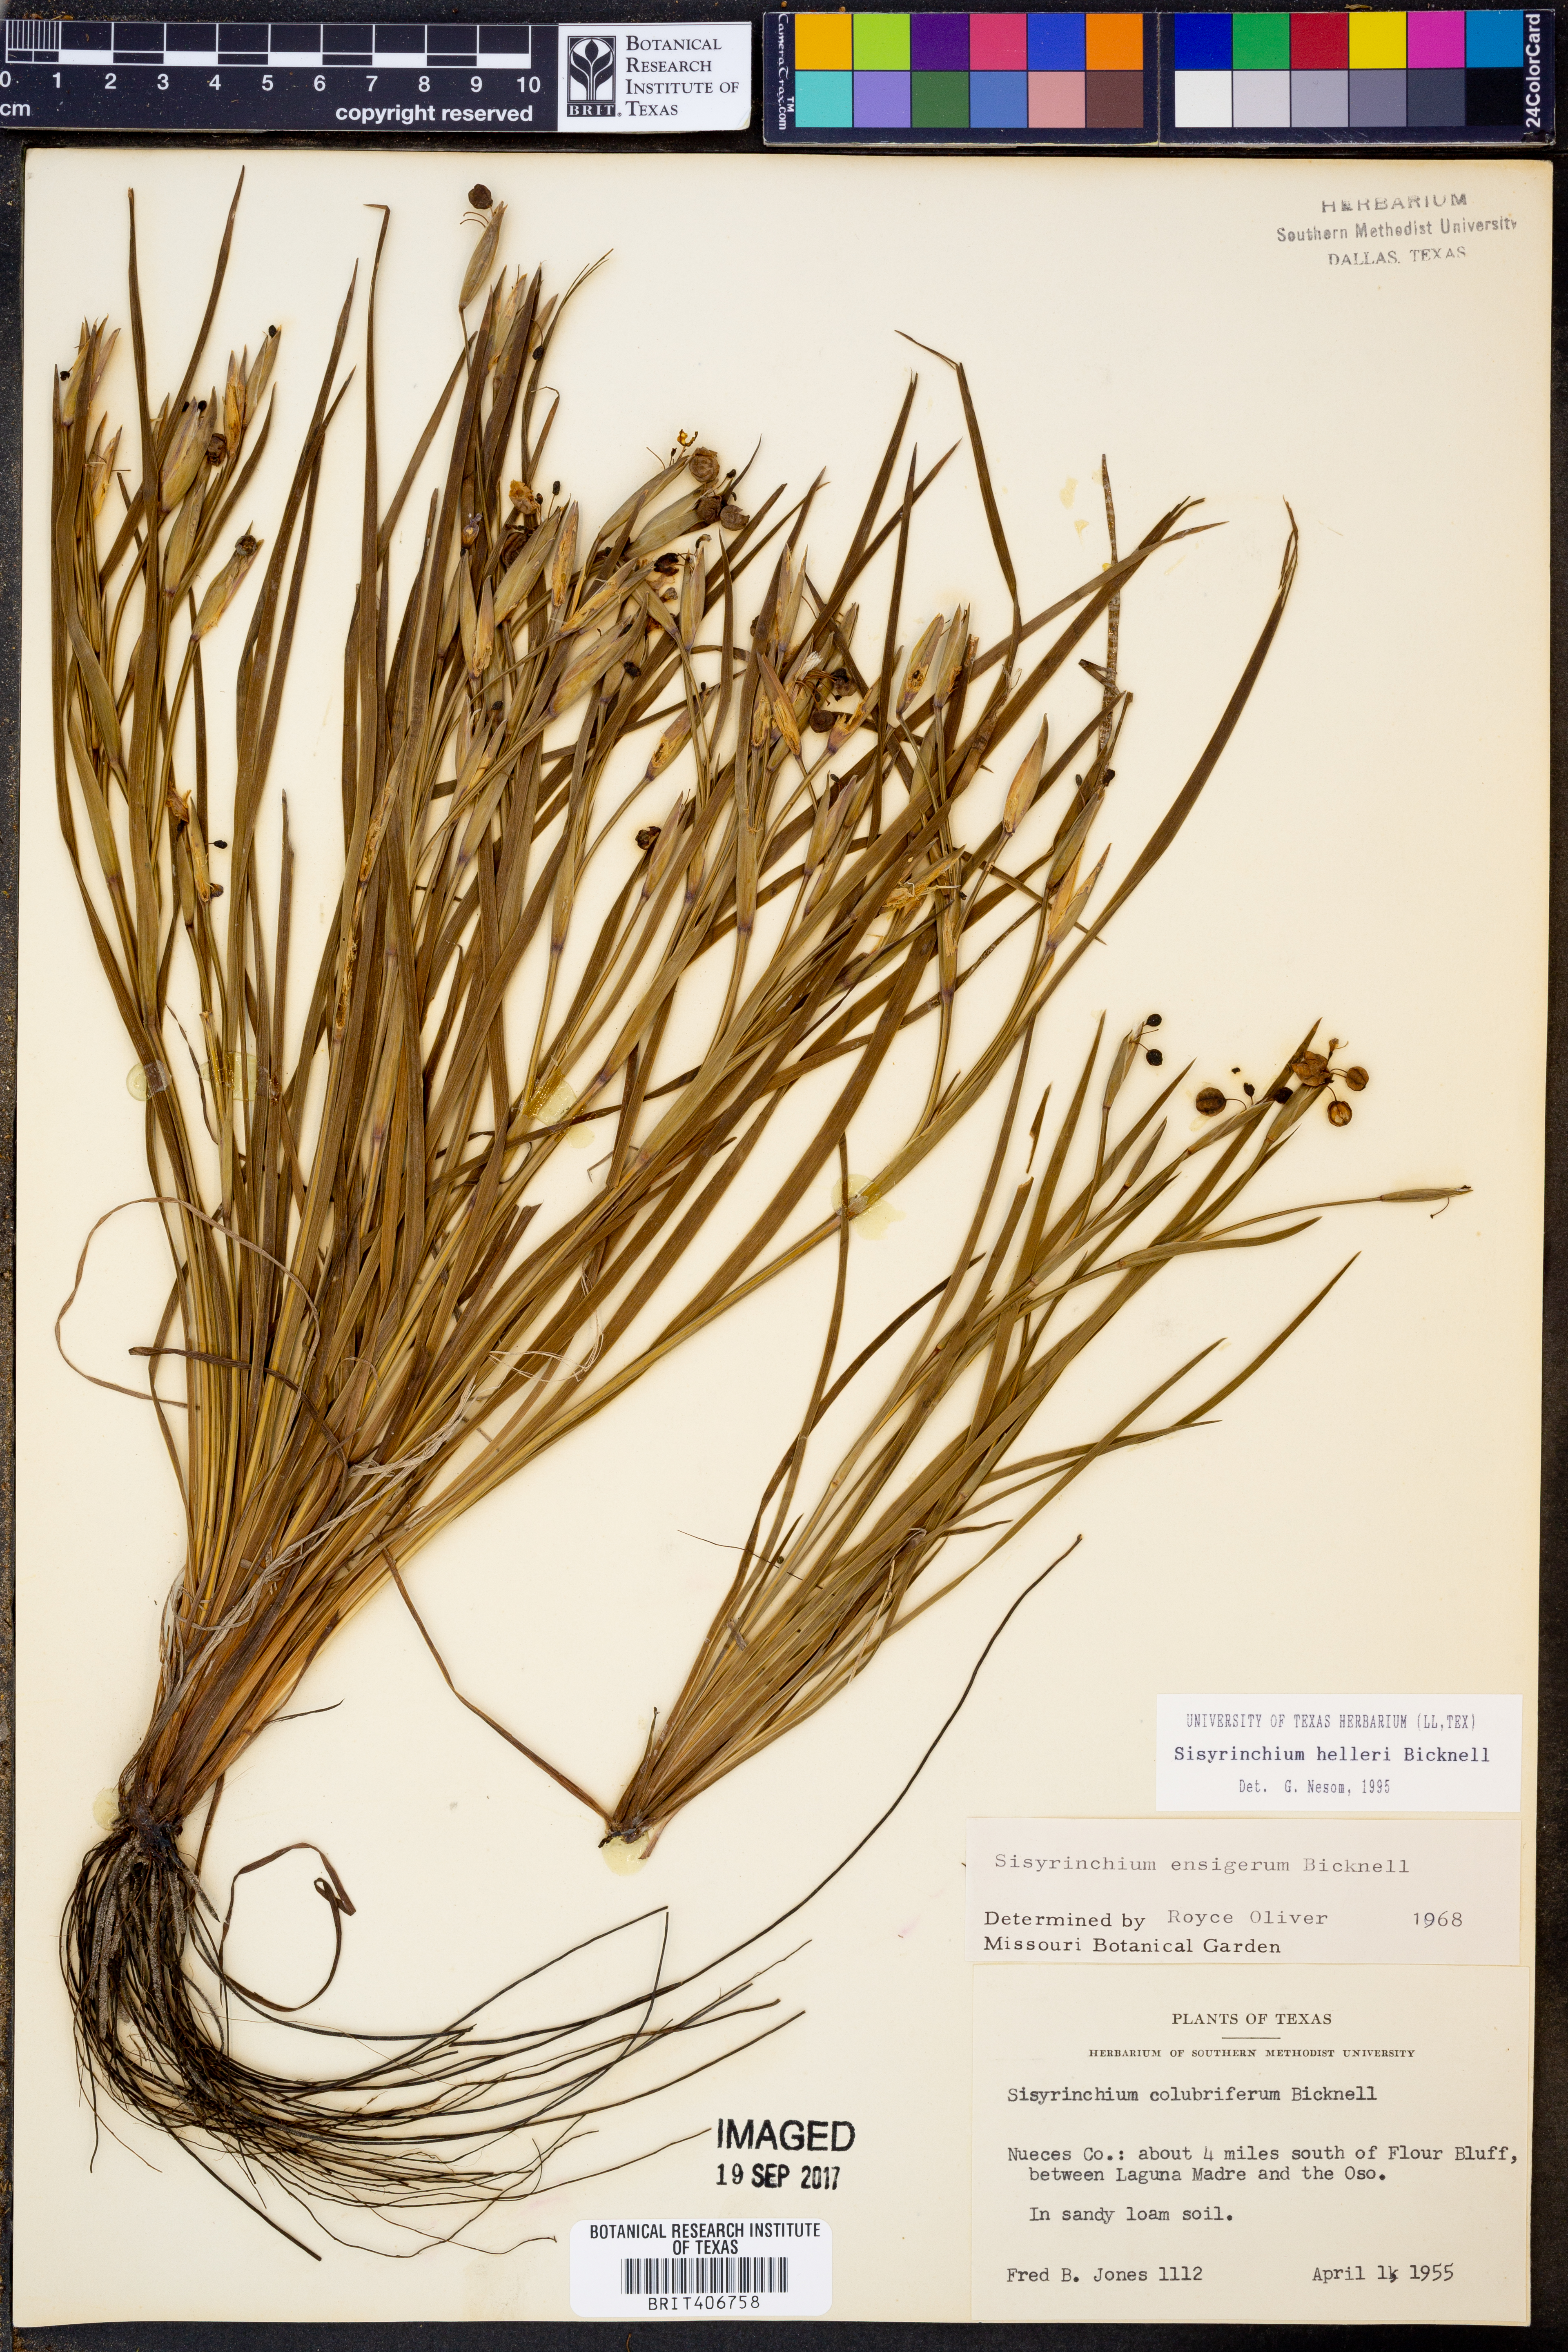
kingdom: Plantae
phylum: Tracheophyta
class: Liliopsida
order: Asparagales
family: Iridaceae
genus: Sisyrinchium
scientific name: Sisyrinchium pruinosum
